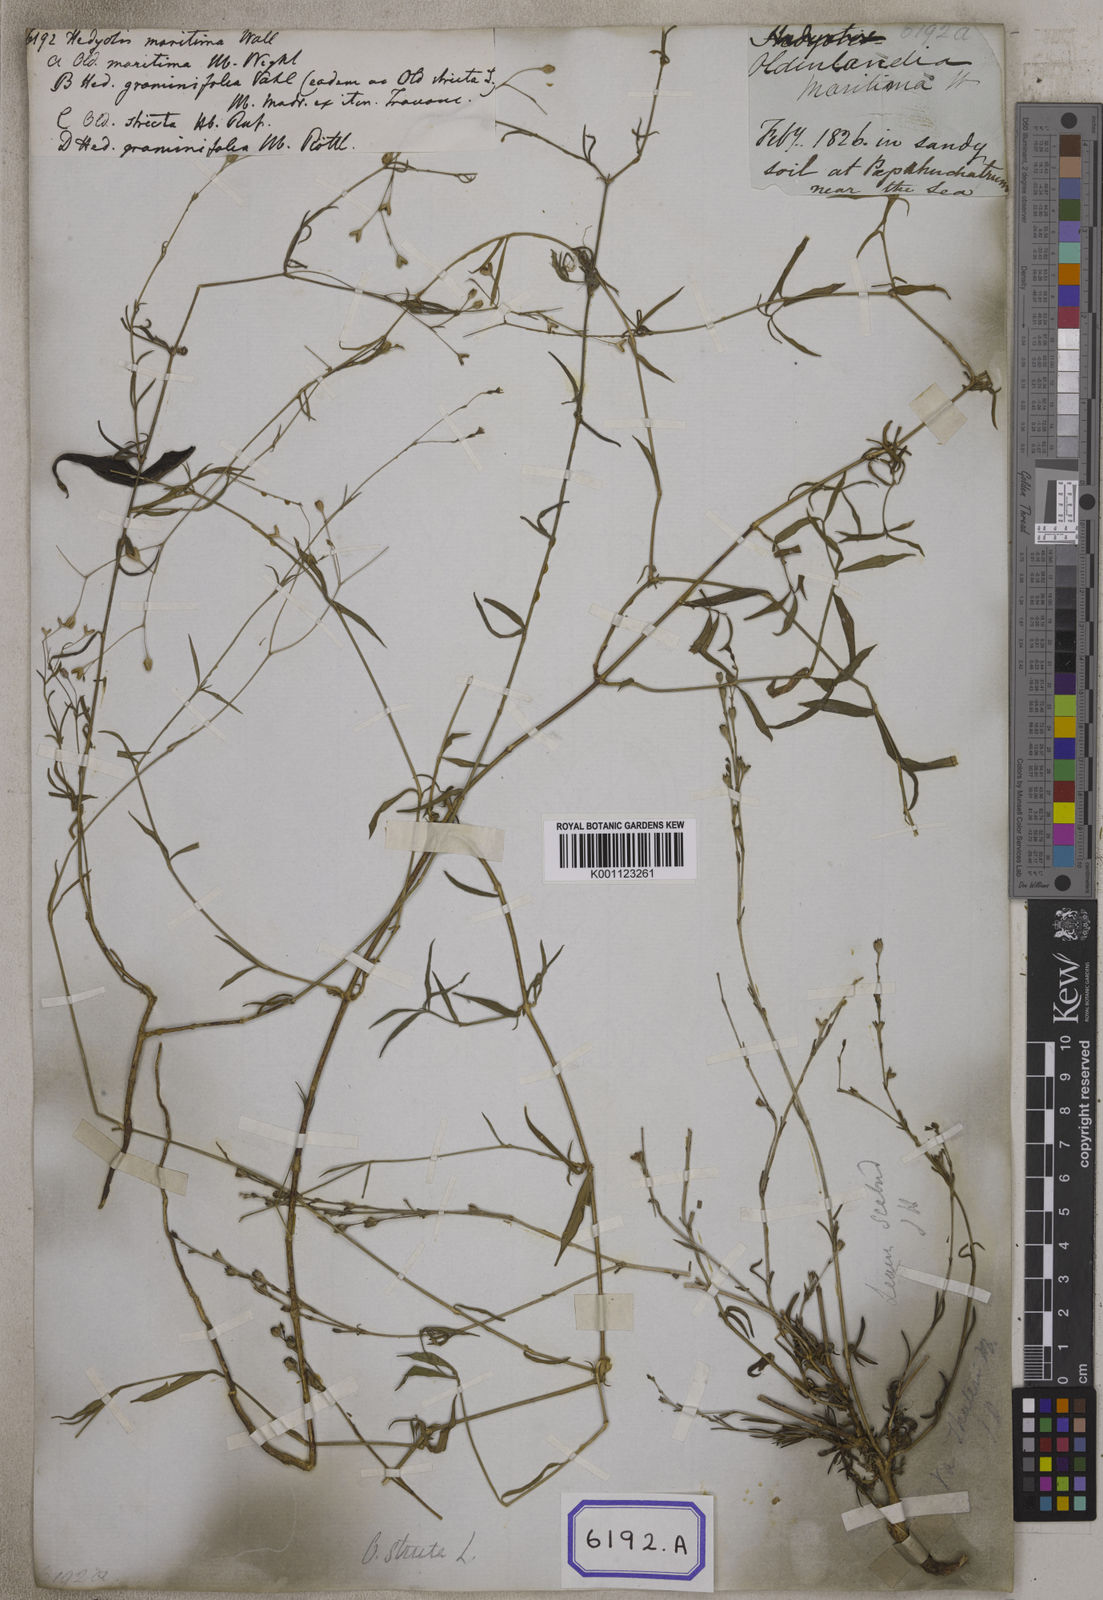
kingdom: Plantae
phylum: Tracheophyta
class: Magnoliopsida
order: Gentianales
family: Rubiaceae
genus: Hedyotis
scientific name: Hedyotis
